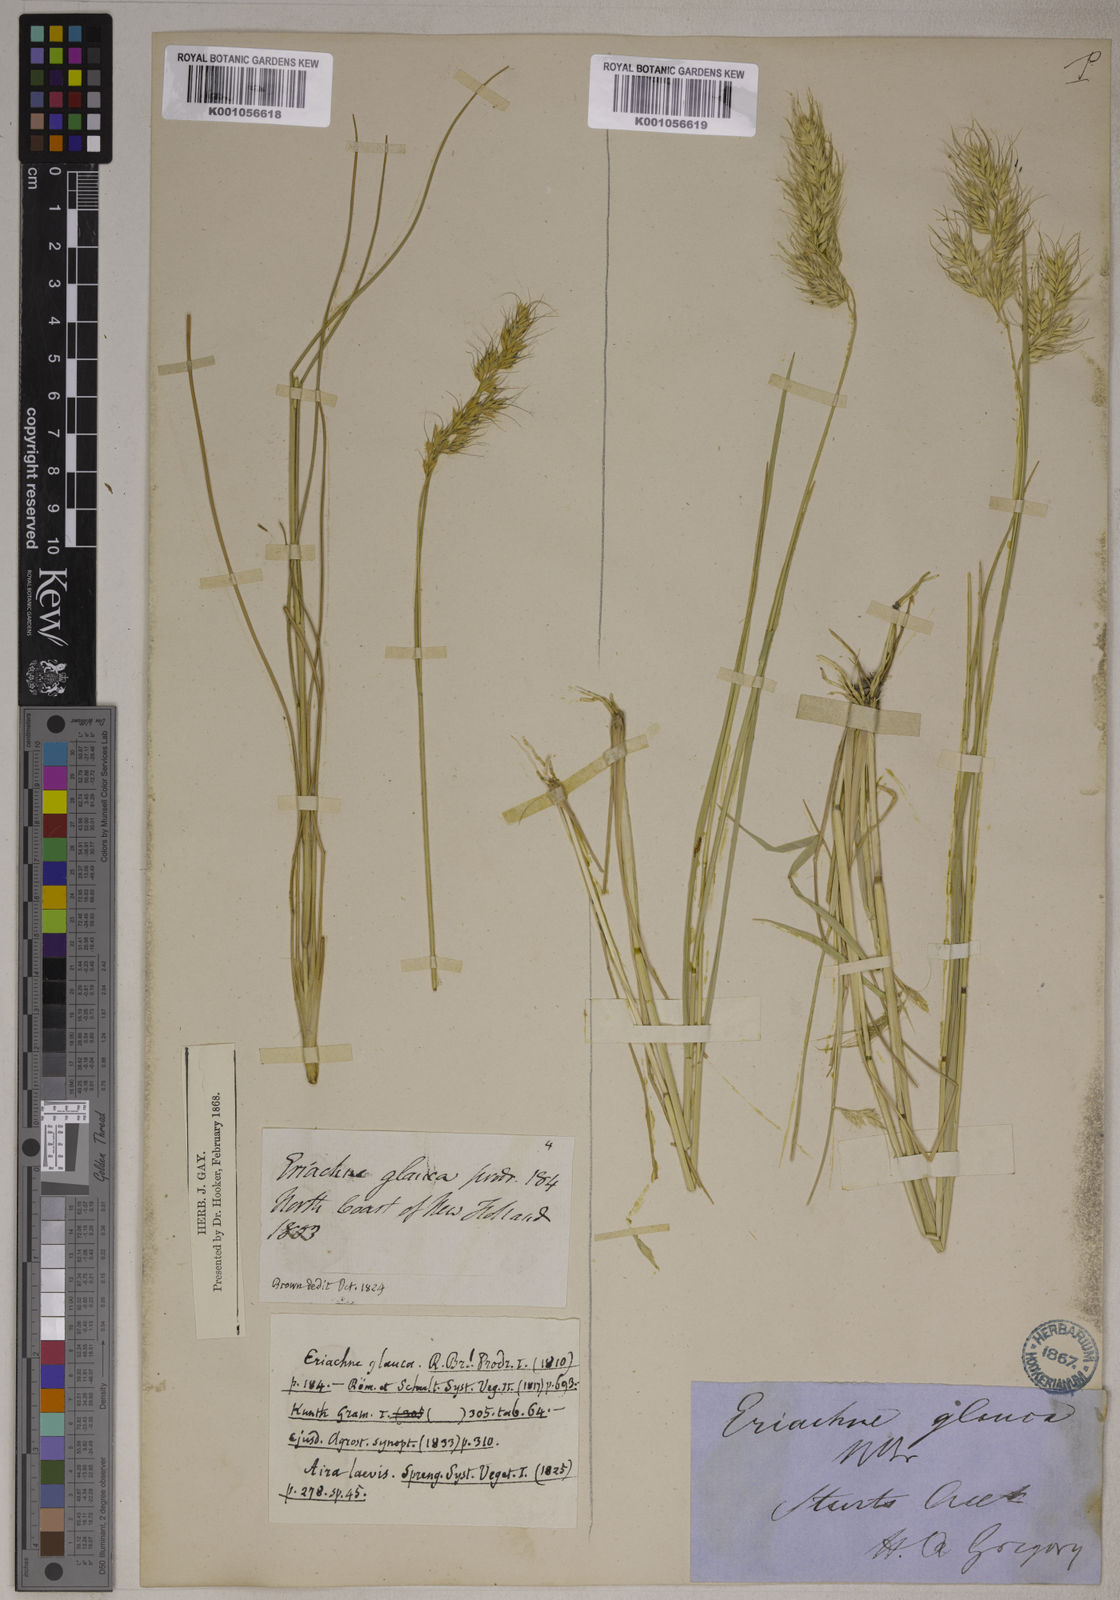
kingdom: Plantae
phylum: Tracheophyta
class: Liliopsida
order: Poales
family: Poaceae
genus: Eriachne
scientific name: Eriachne glauca
